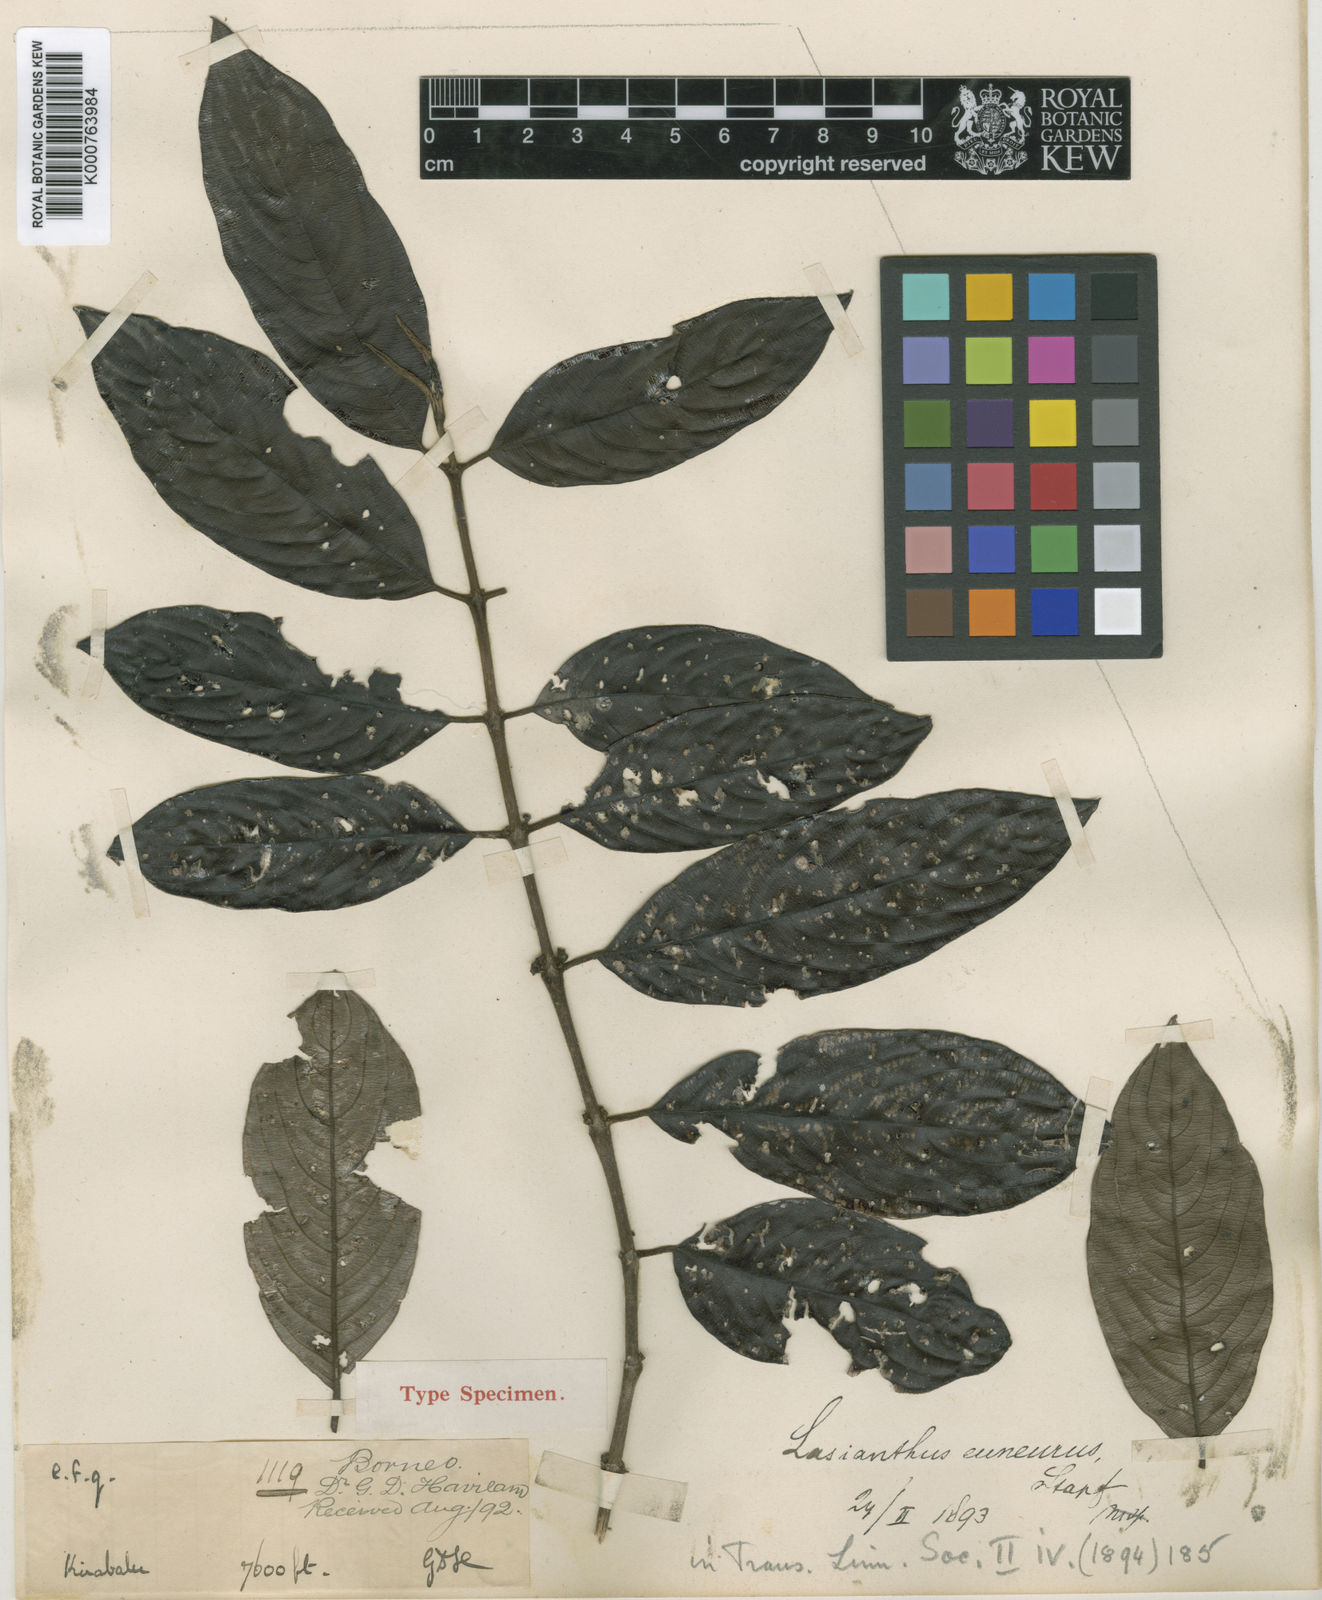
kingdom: Plantae
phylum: Tracheophyta
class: Magnoliopsida
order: Gentianales
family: Rubiaceae
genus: Lasianthus
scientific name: Lasianthus euneurus
